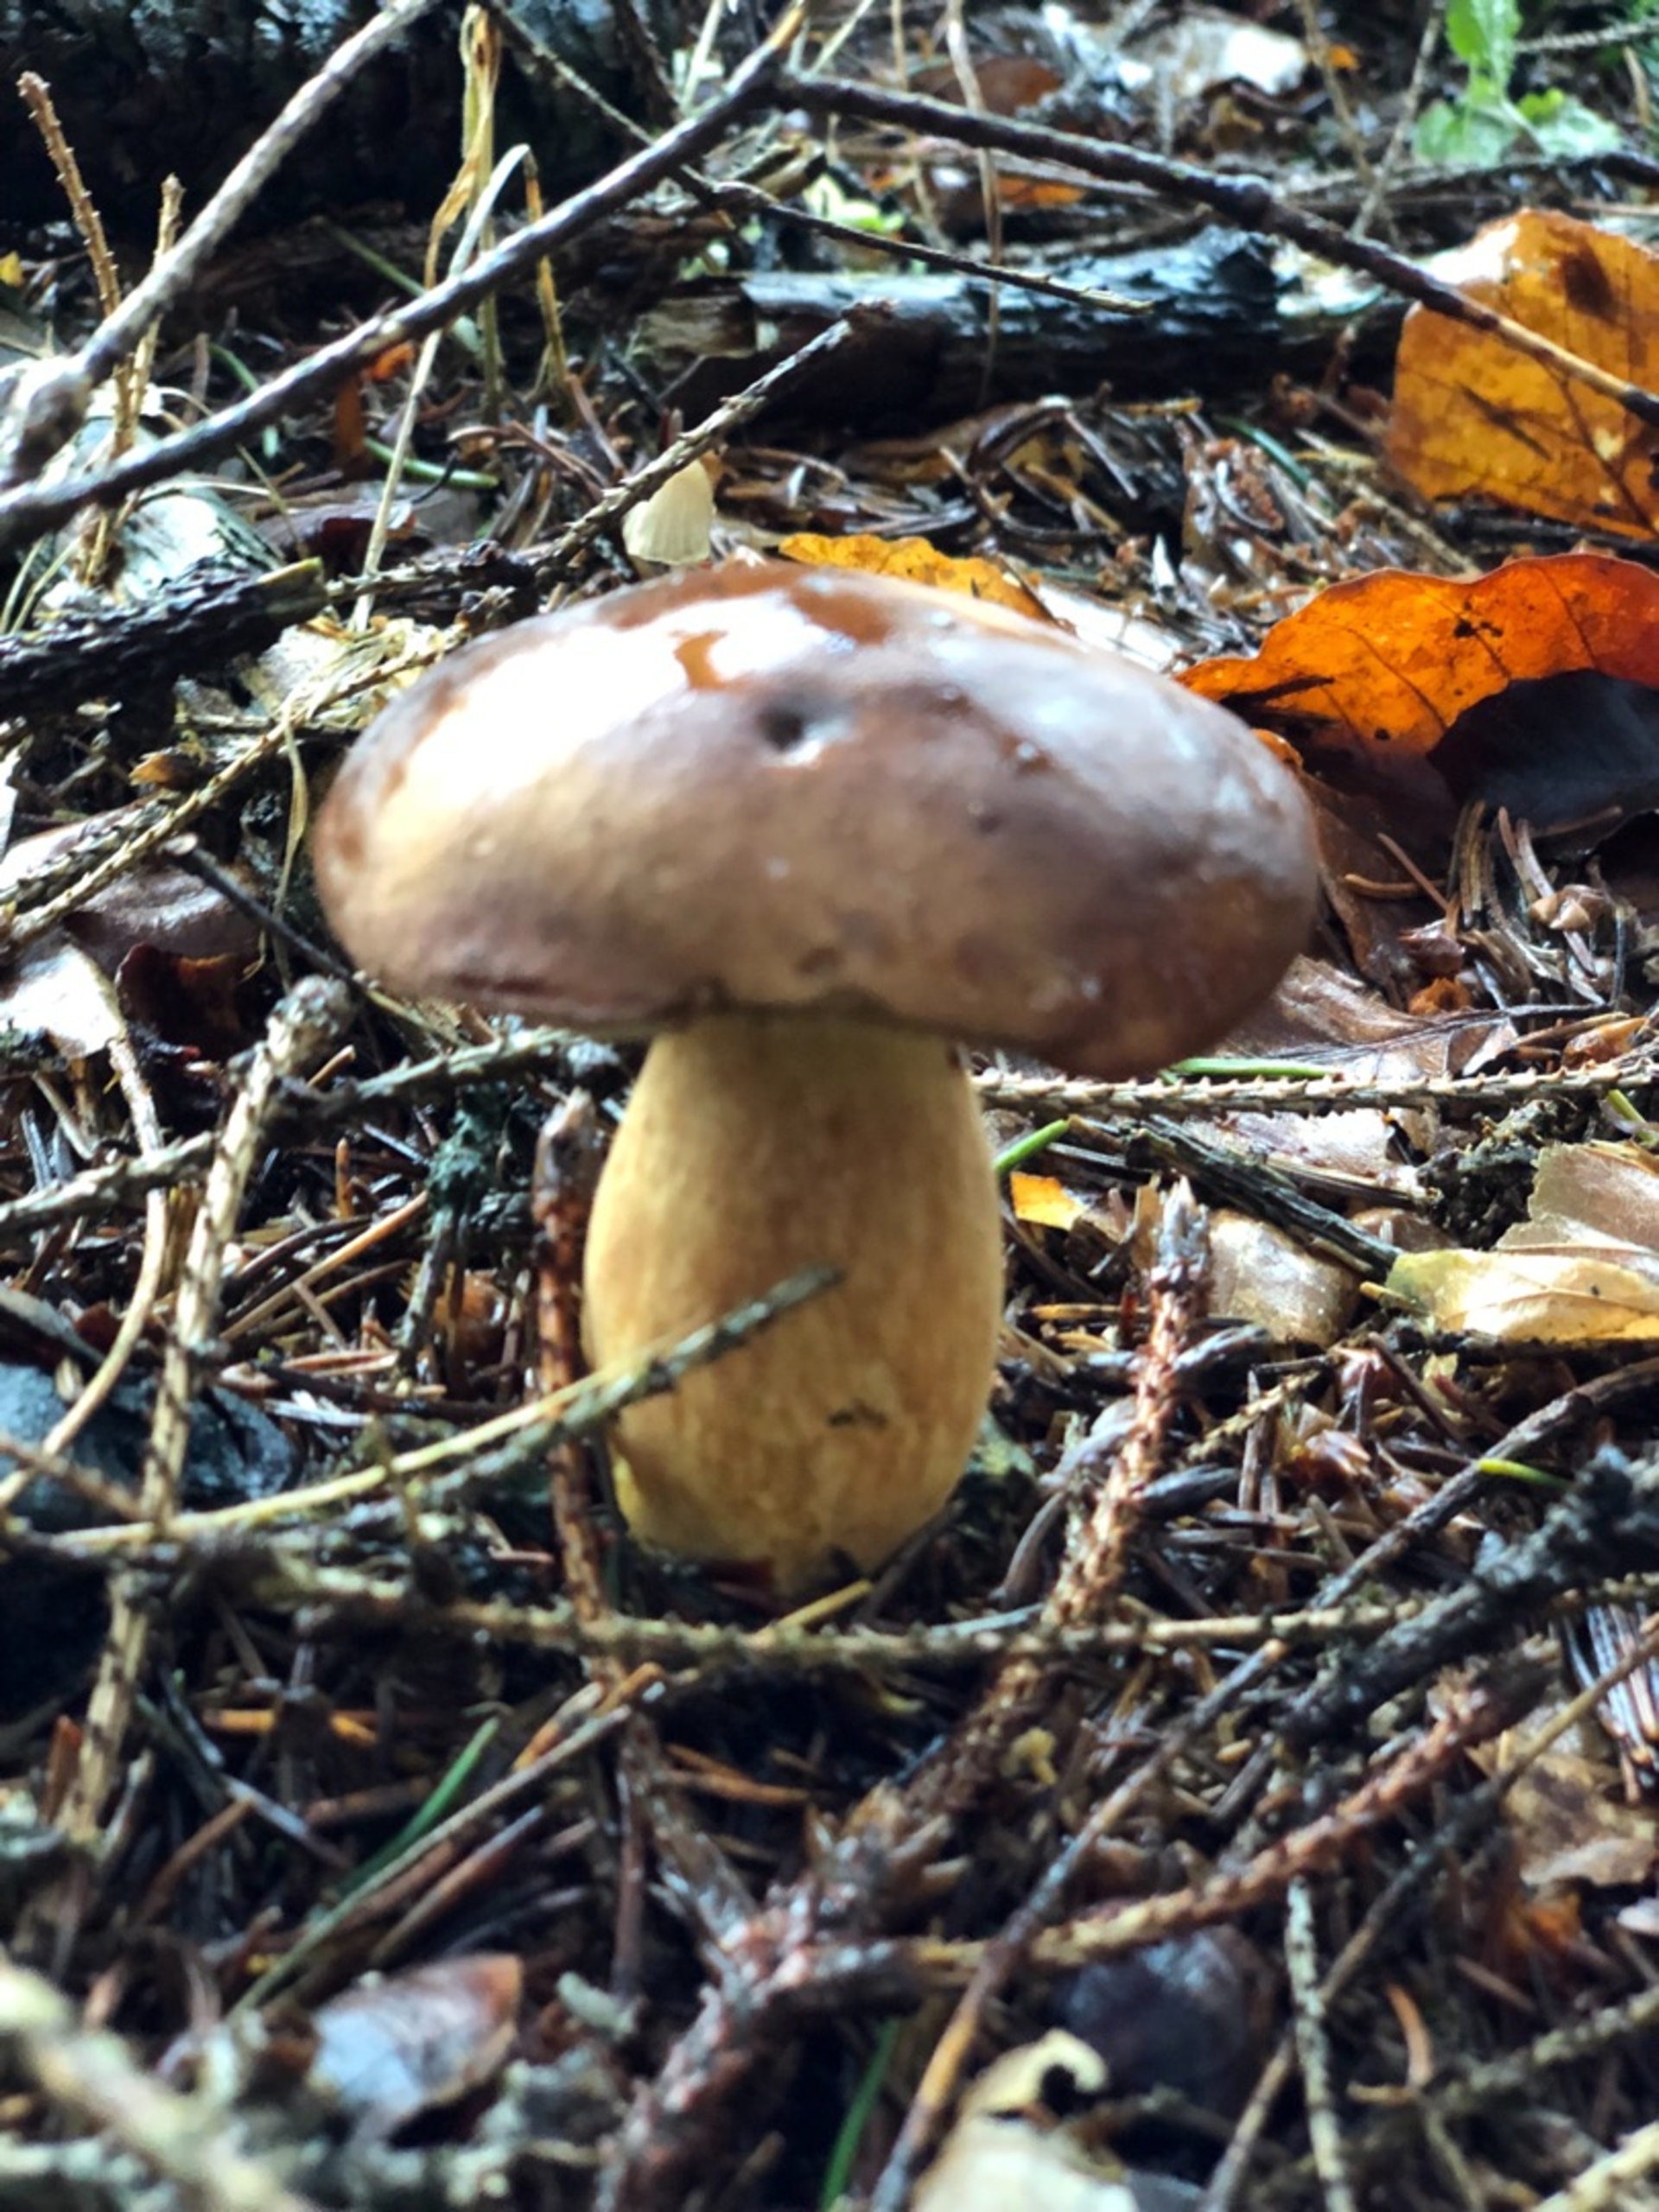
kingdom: Fungi
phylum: Basidiomycota
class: Agaricomycetes
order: Boletales
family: Boletaceae
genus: Imleria
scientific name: Imleria badia
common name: Brunstokket rørhat
